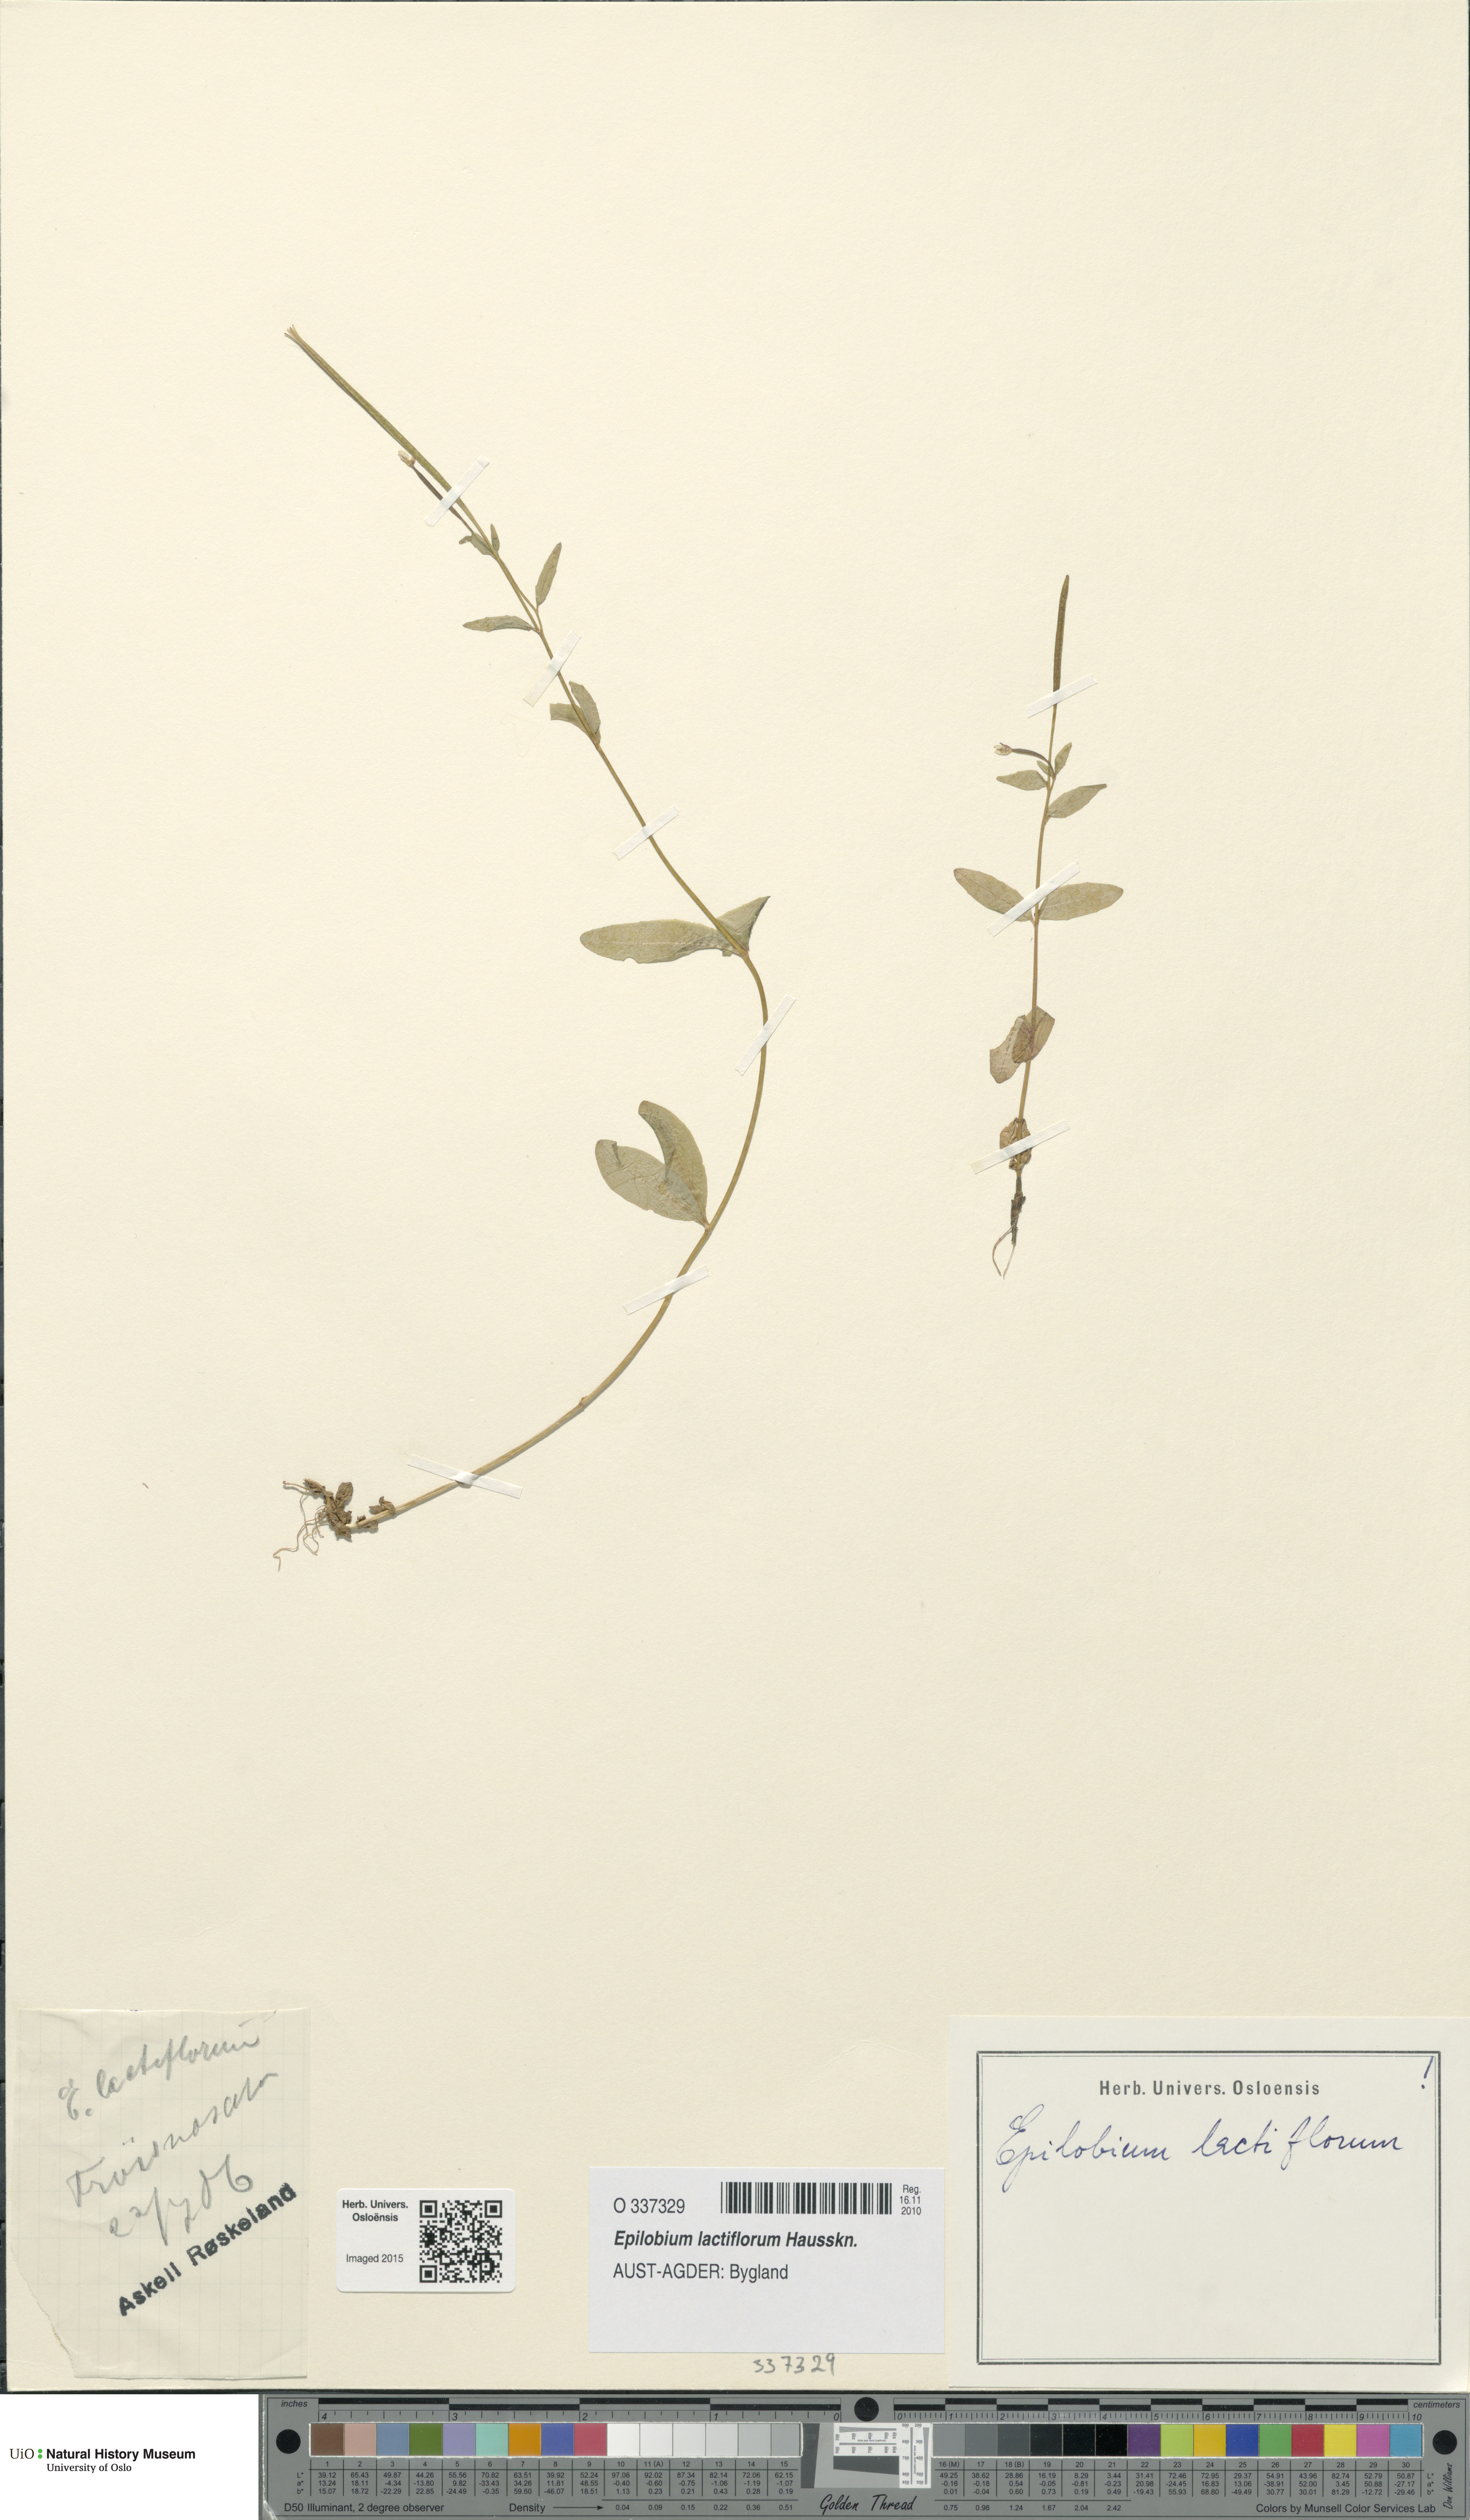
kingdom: Plantae
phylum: Tracheophyta
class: Magnoliopsida
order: Myrtales
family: Onagraceae
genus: Epilobium
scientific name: Epilobium lactiflorum
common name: Milkflower willowherb
